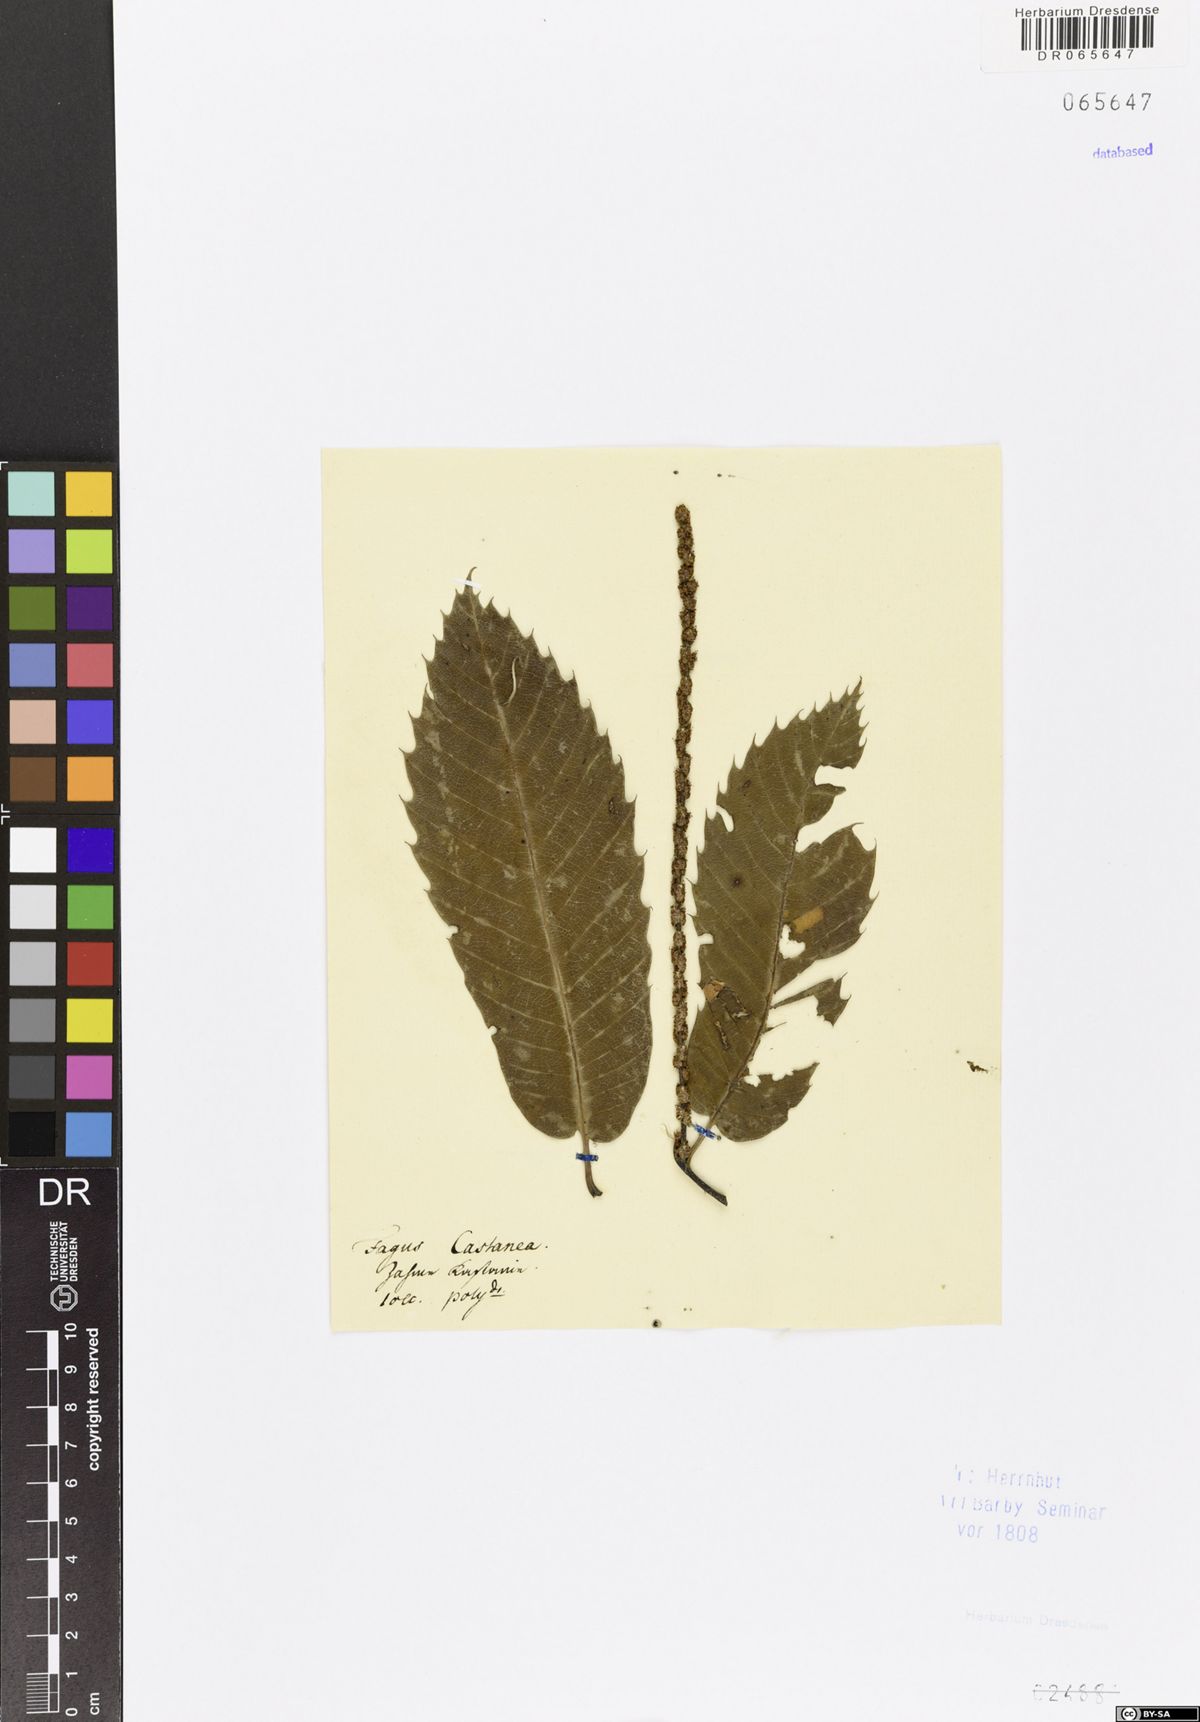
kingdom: Plantae
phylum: Tracheophyta
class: Magnoliopsida
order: Fagales
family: Fagaceae
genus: Castanea
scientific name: Castanea sativa
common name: Sweet chestnut
